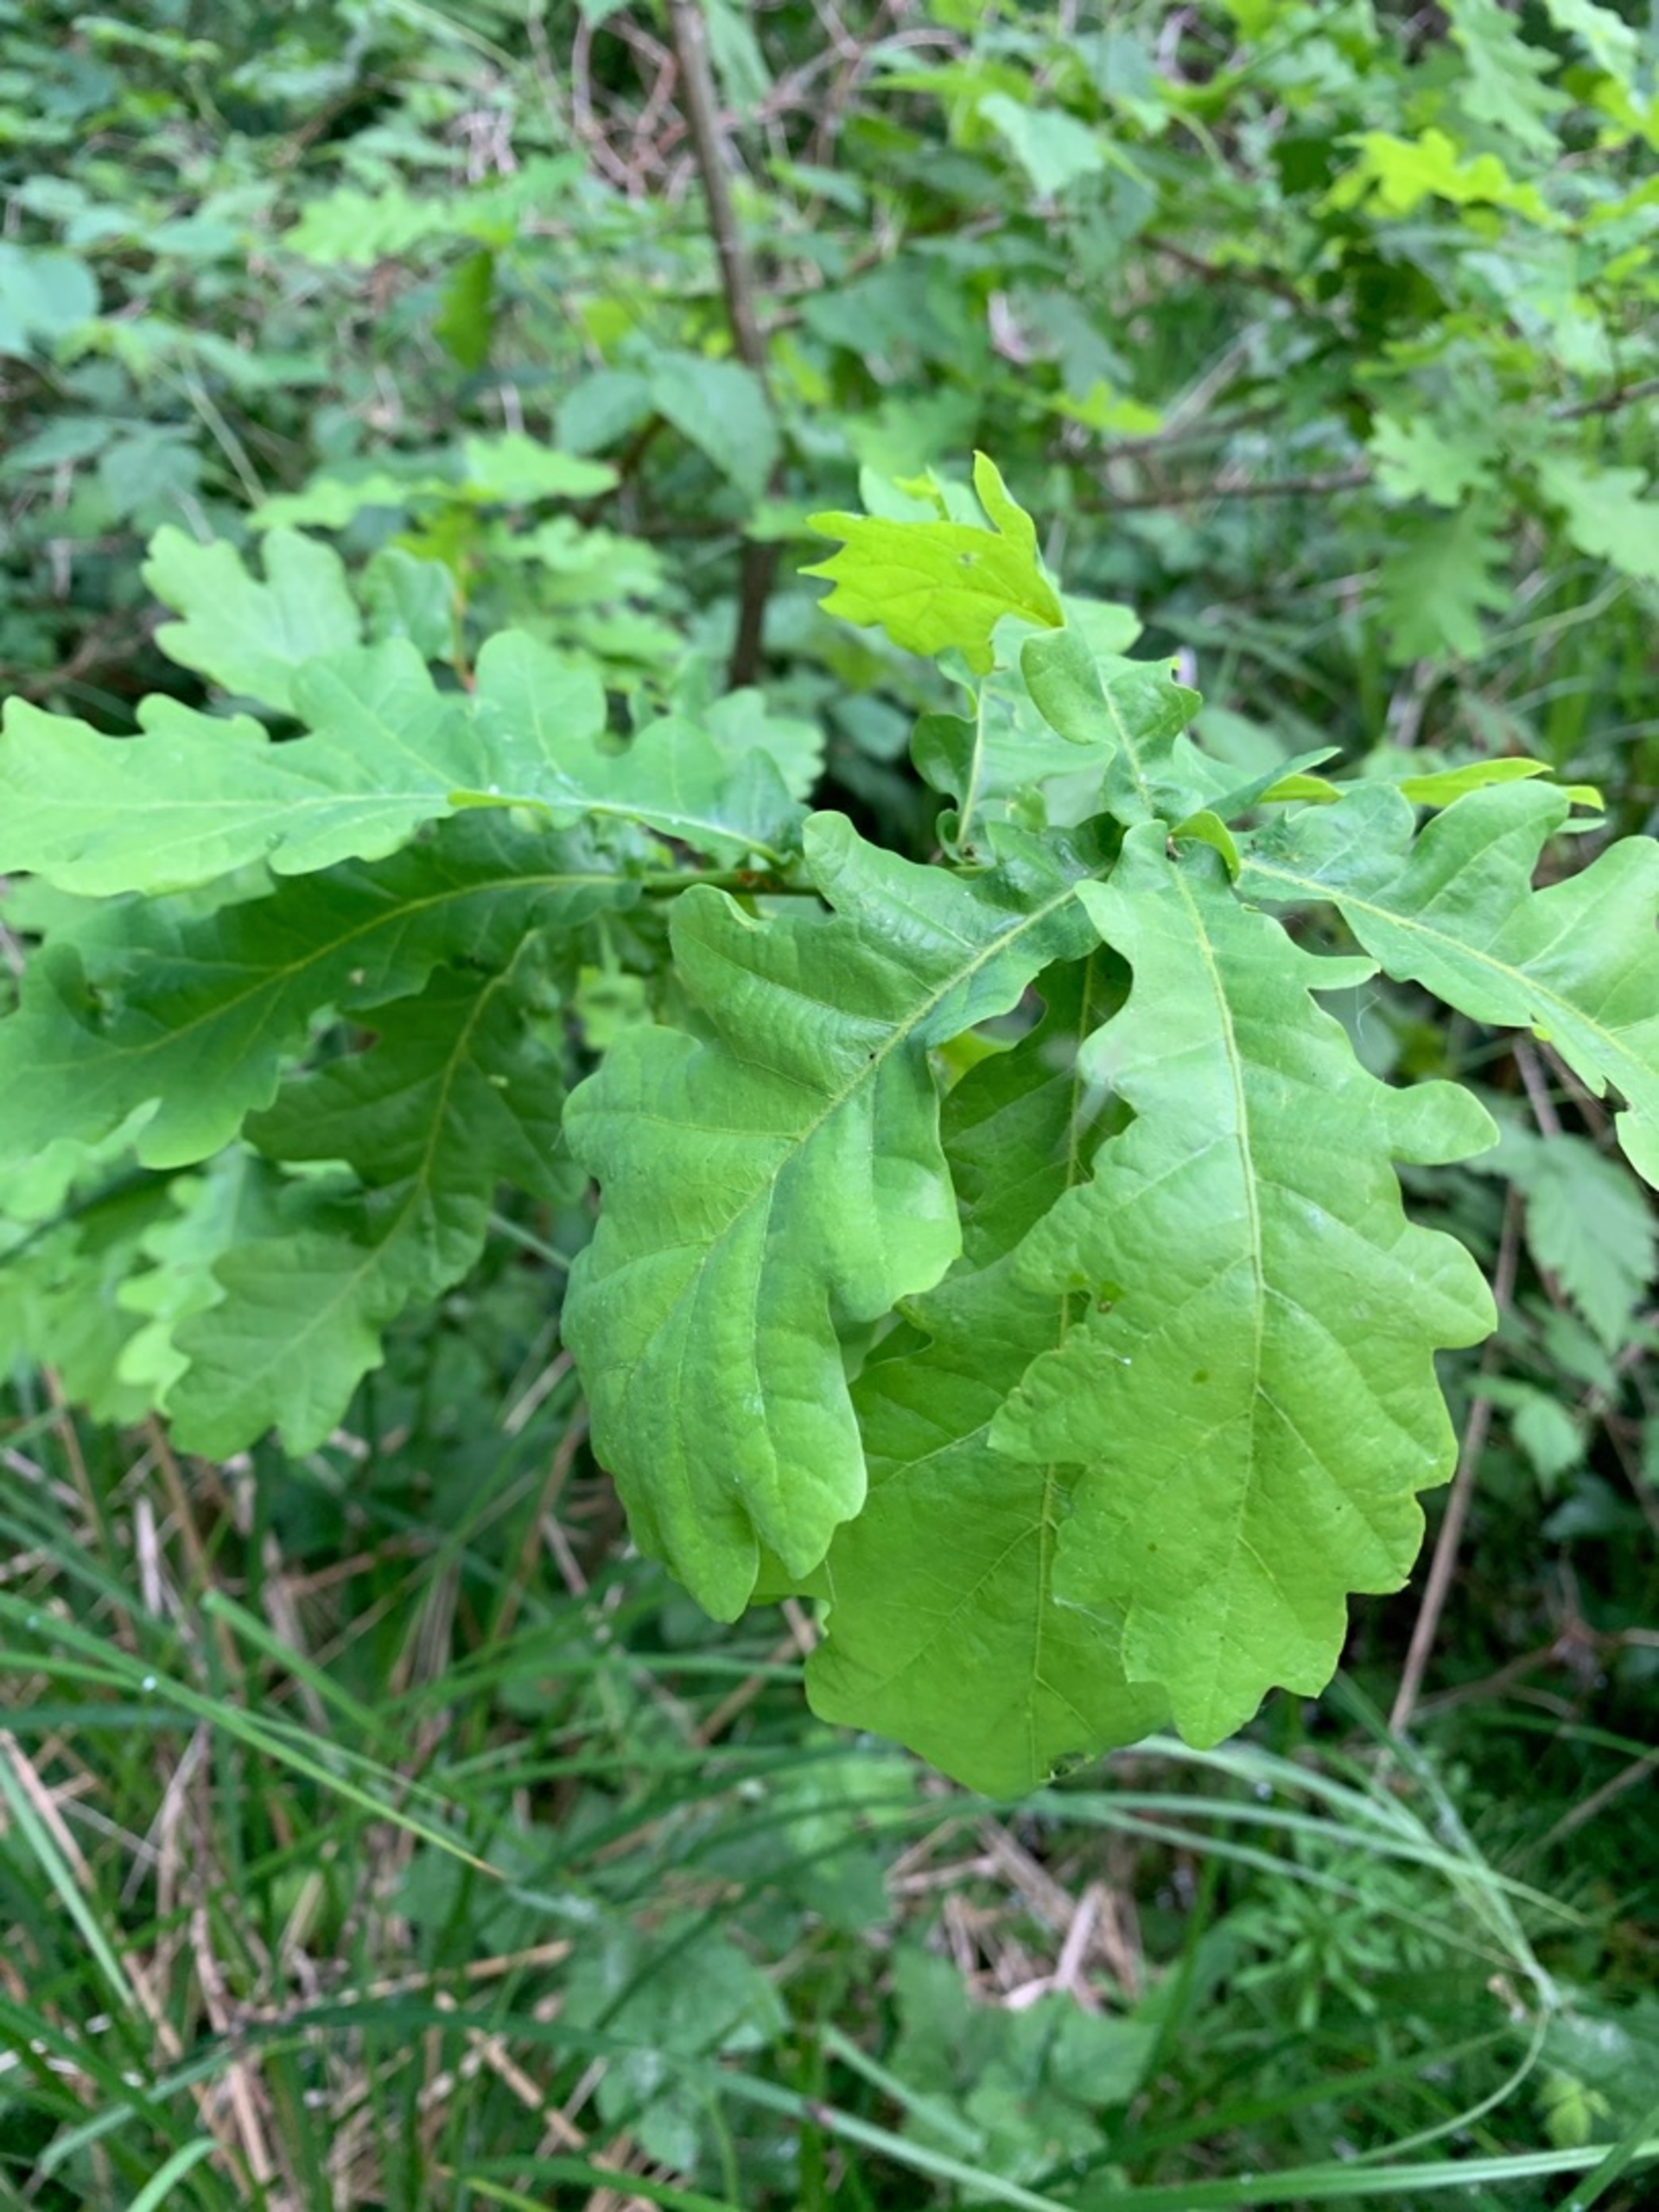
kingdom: Plantae
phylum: Tracheophyta
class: Magnoliopsida
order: Fagales
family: Fagaceae
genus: Quercus
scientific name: Quercus robur
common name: Stilk-eg/almindelig eg
